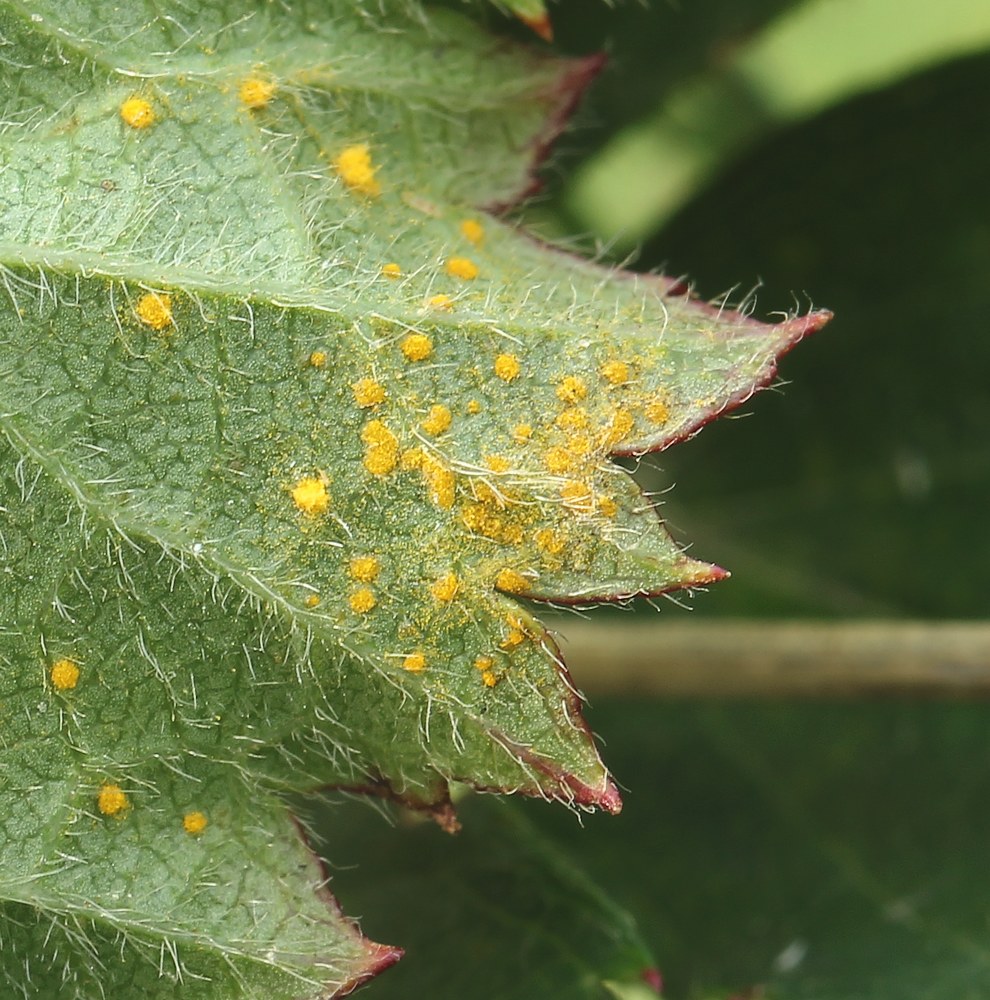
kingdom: Fungi
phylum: Basidiomycota
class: Pucciniomycetes
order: Pucciniales
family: Phragmidiaceae
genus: Phragmidium
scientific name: Phragmidium
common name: flercellerust
